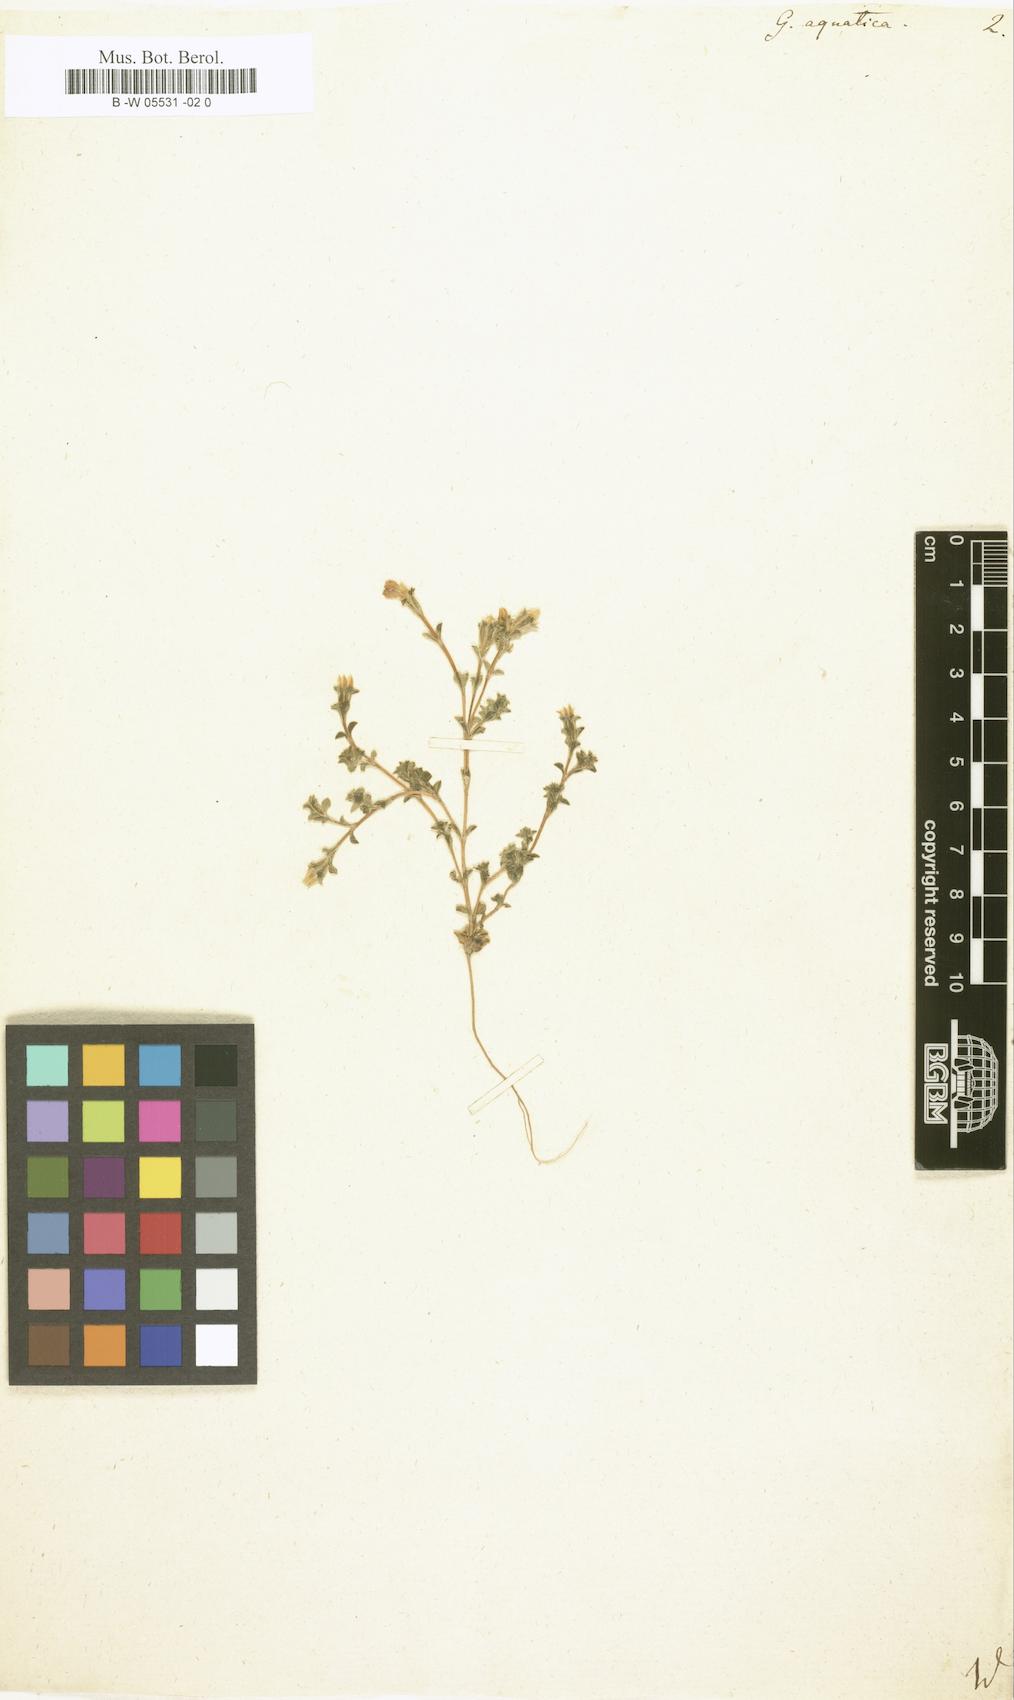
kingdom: Plantae
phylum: Tracheophyta
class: Magnoliopsida
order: Gentianales
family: Gentianaceae
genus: Gentiana
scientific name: Gentiana aquatica
